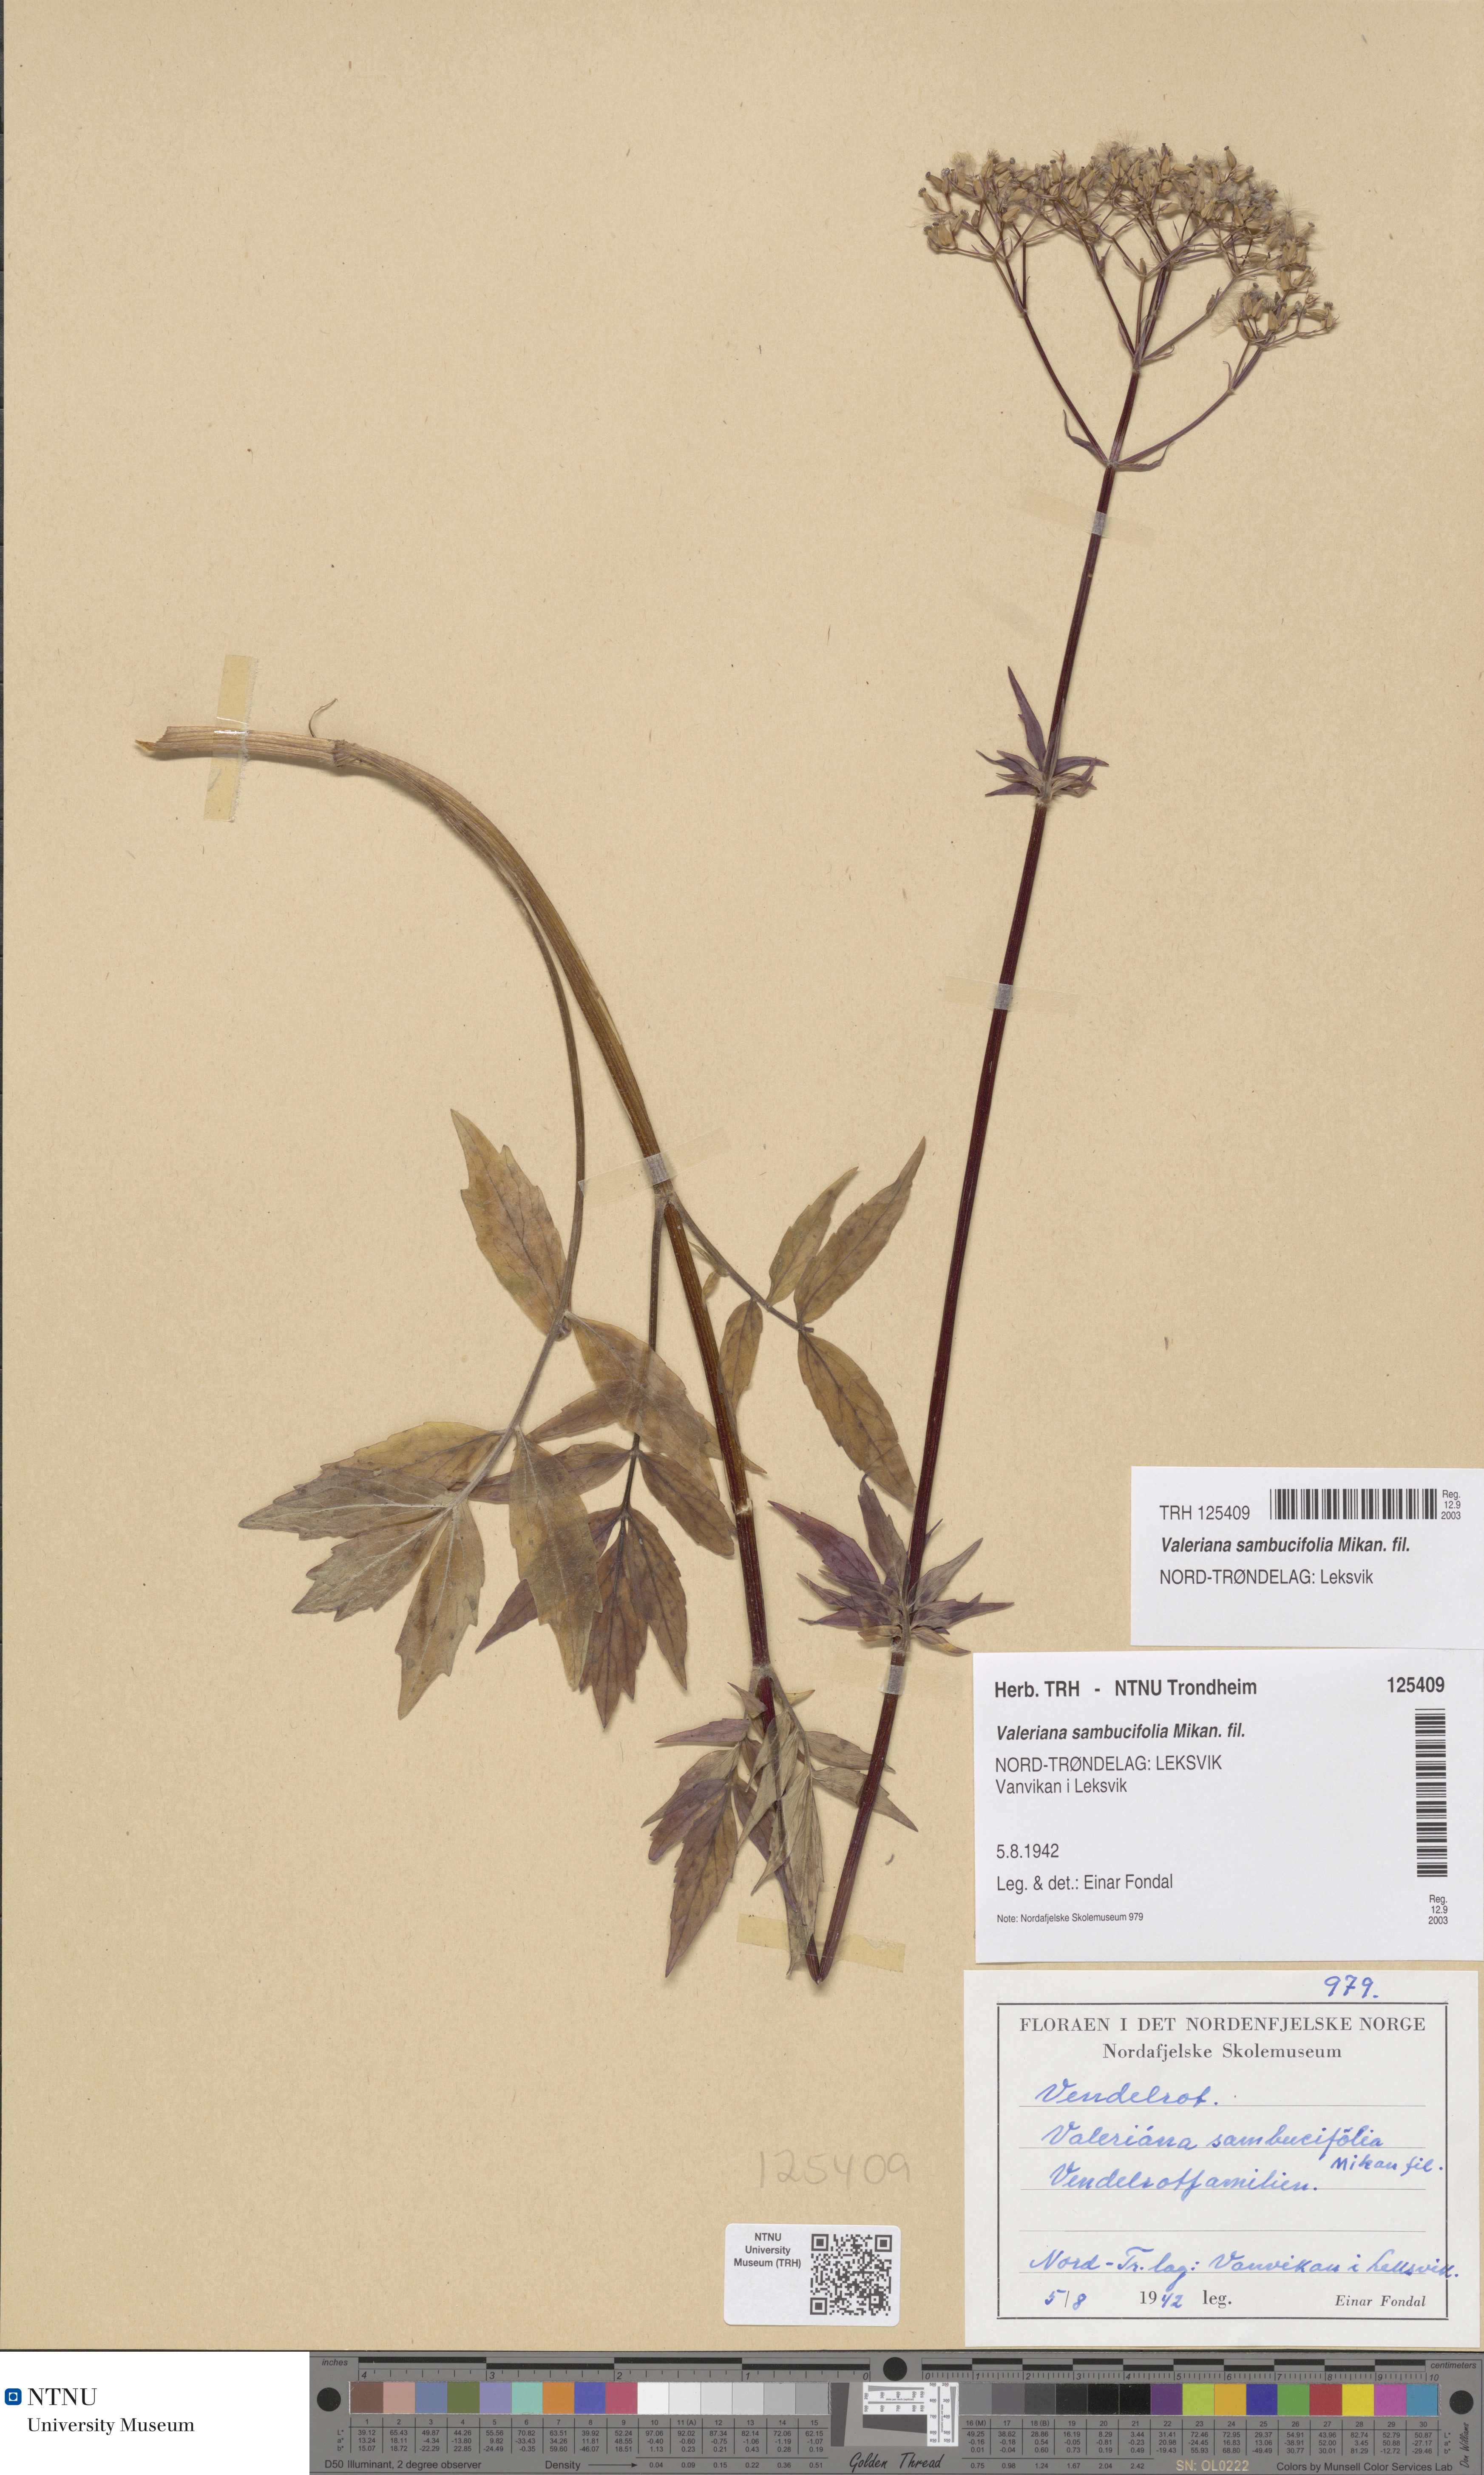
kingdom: Plantae
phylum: Tracheophyta
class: Magnoliopsida
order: Dipsacales
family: Caprifoliaceae
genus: Valeriana
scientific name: Valeriana excelsa
